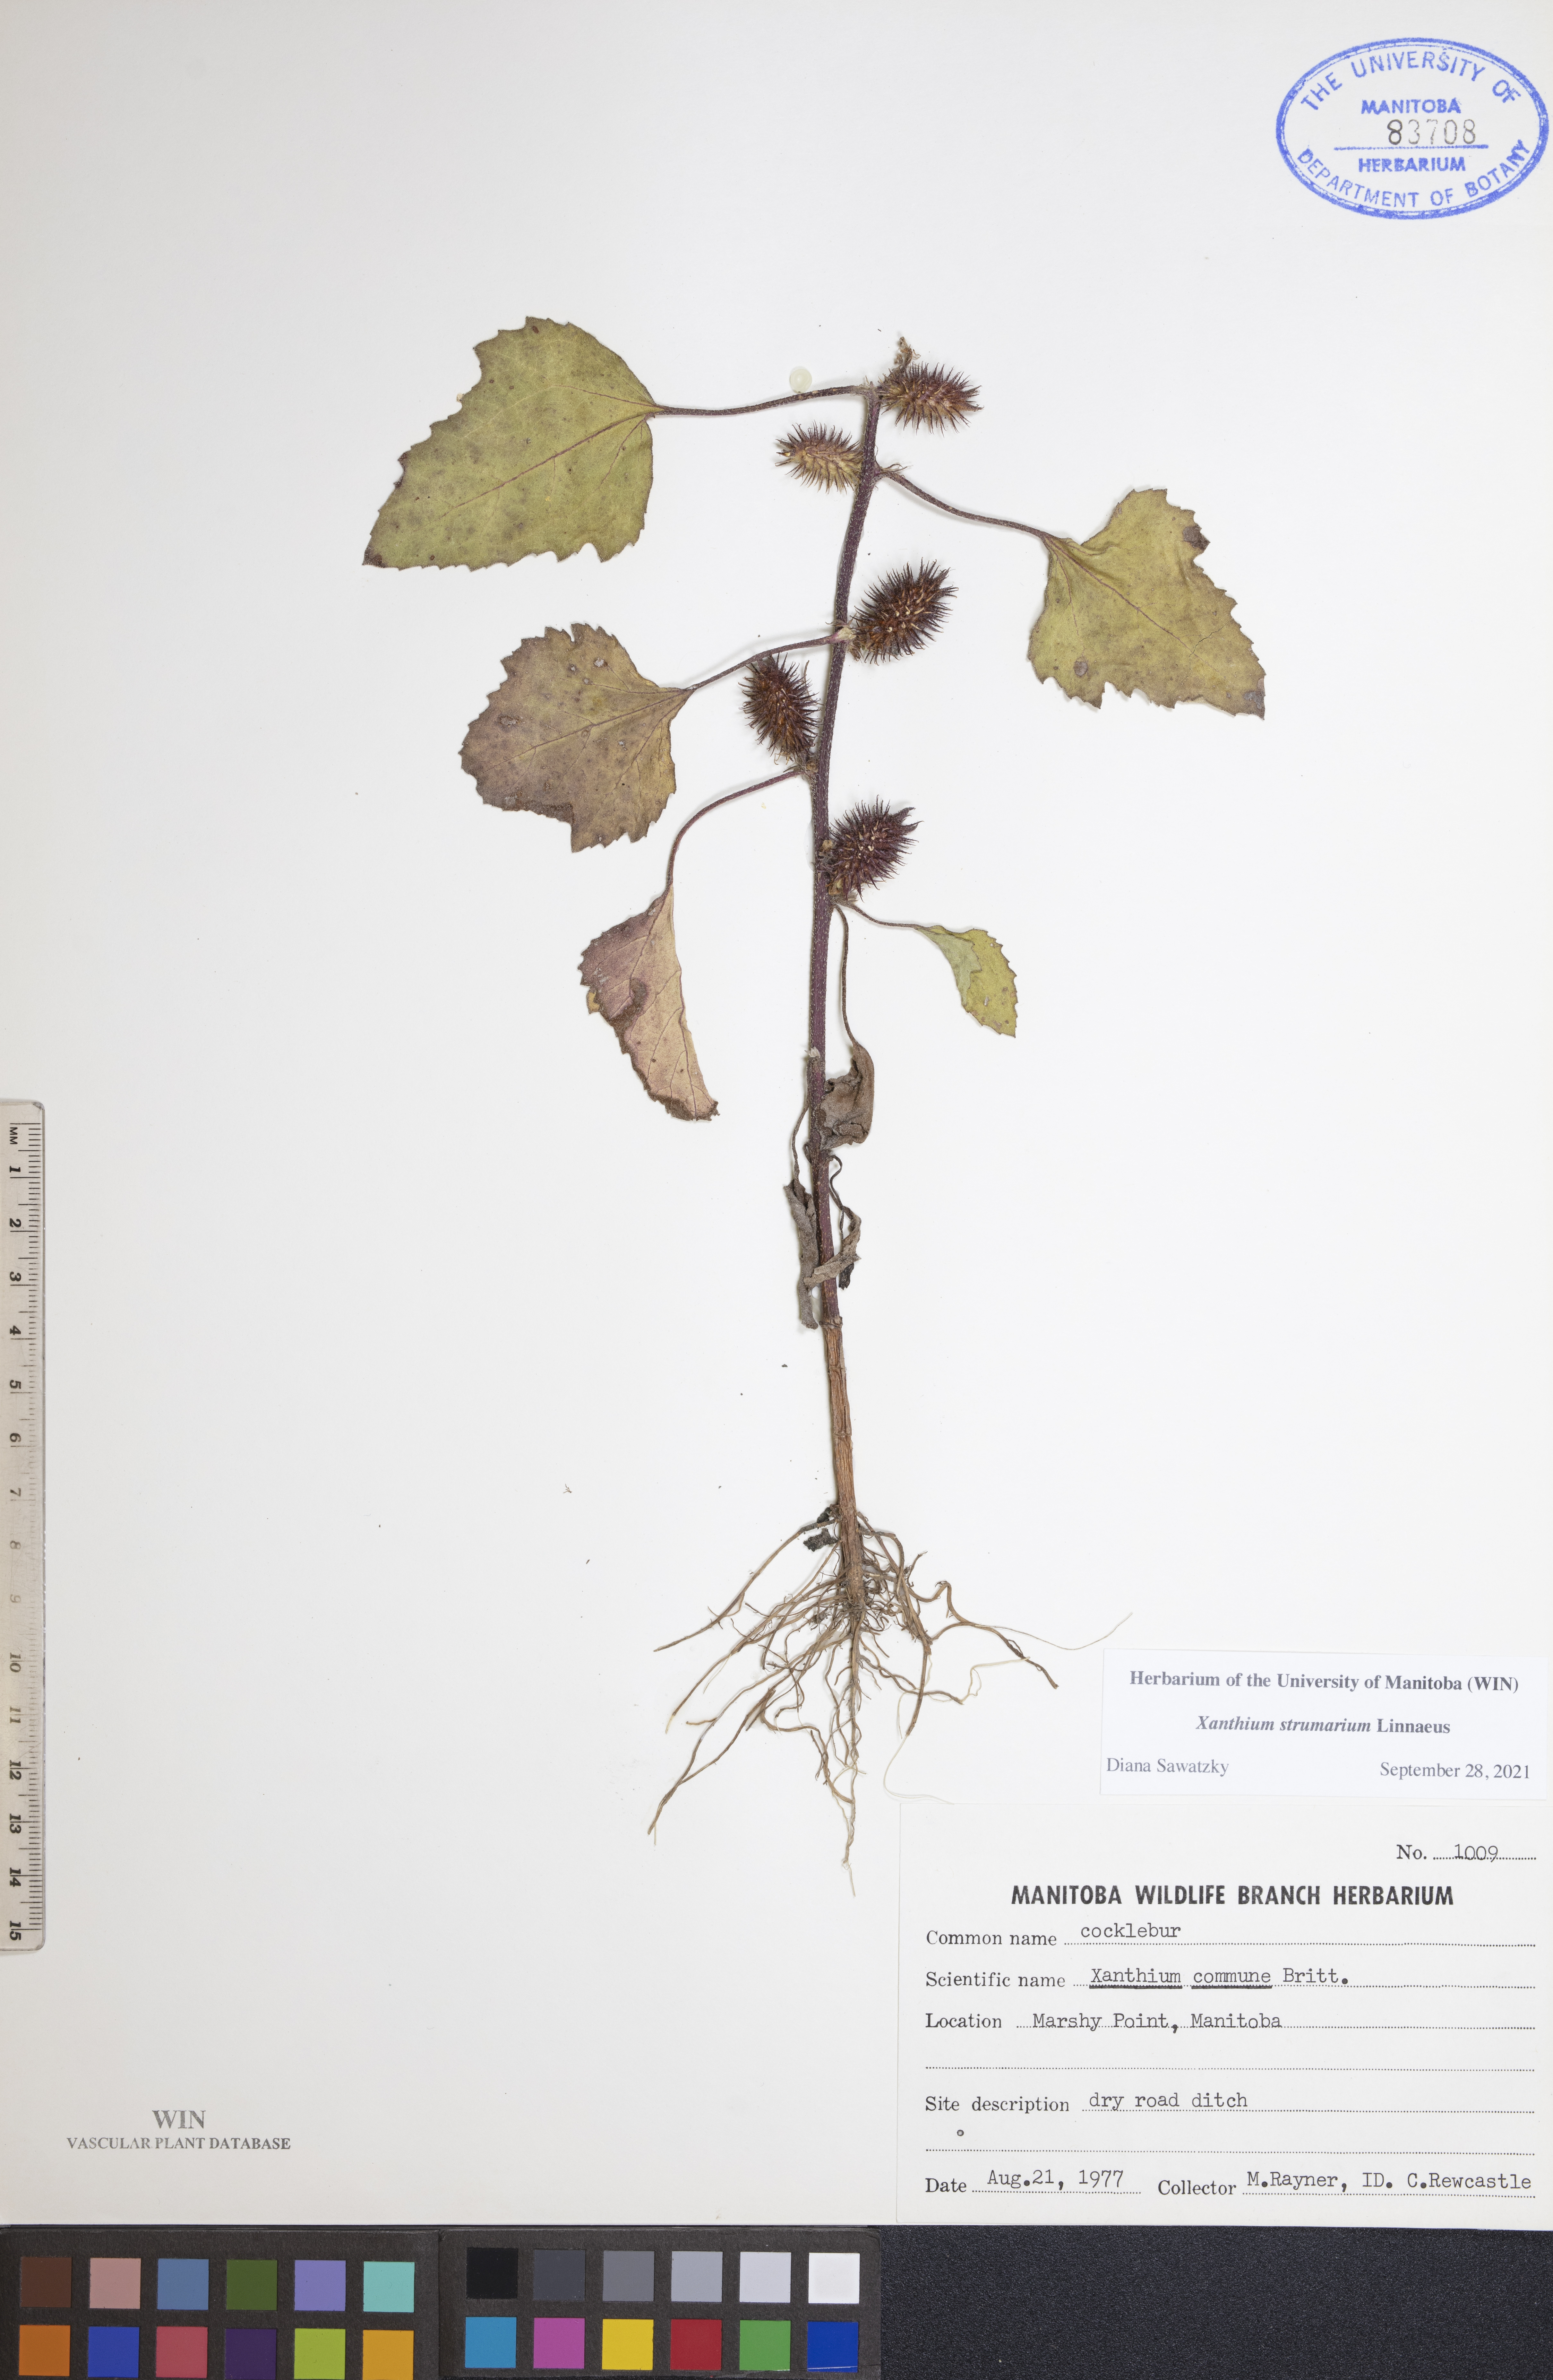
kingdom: Plantae
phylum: Tracheophyta
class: Magnoliopsida
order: Asterales
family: Asteraceae
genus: Xanthium
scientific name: Xanthium strumarium
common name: Rough cocklebur
